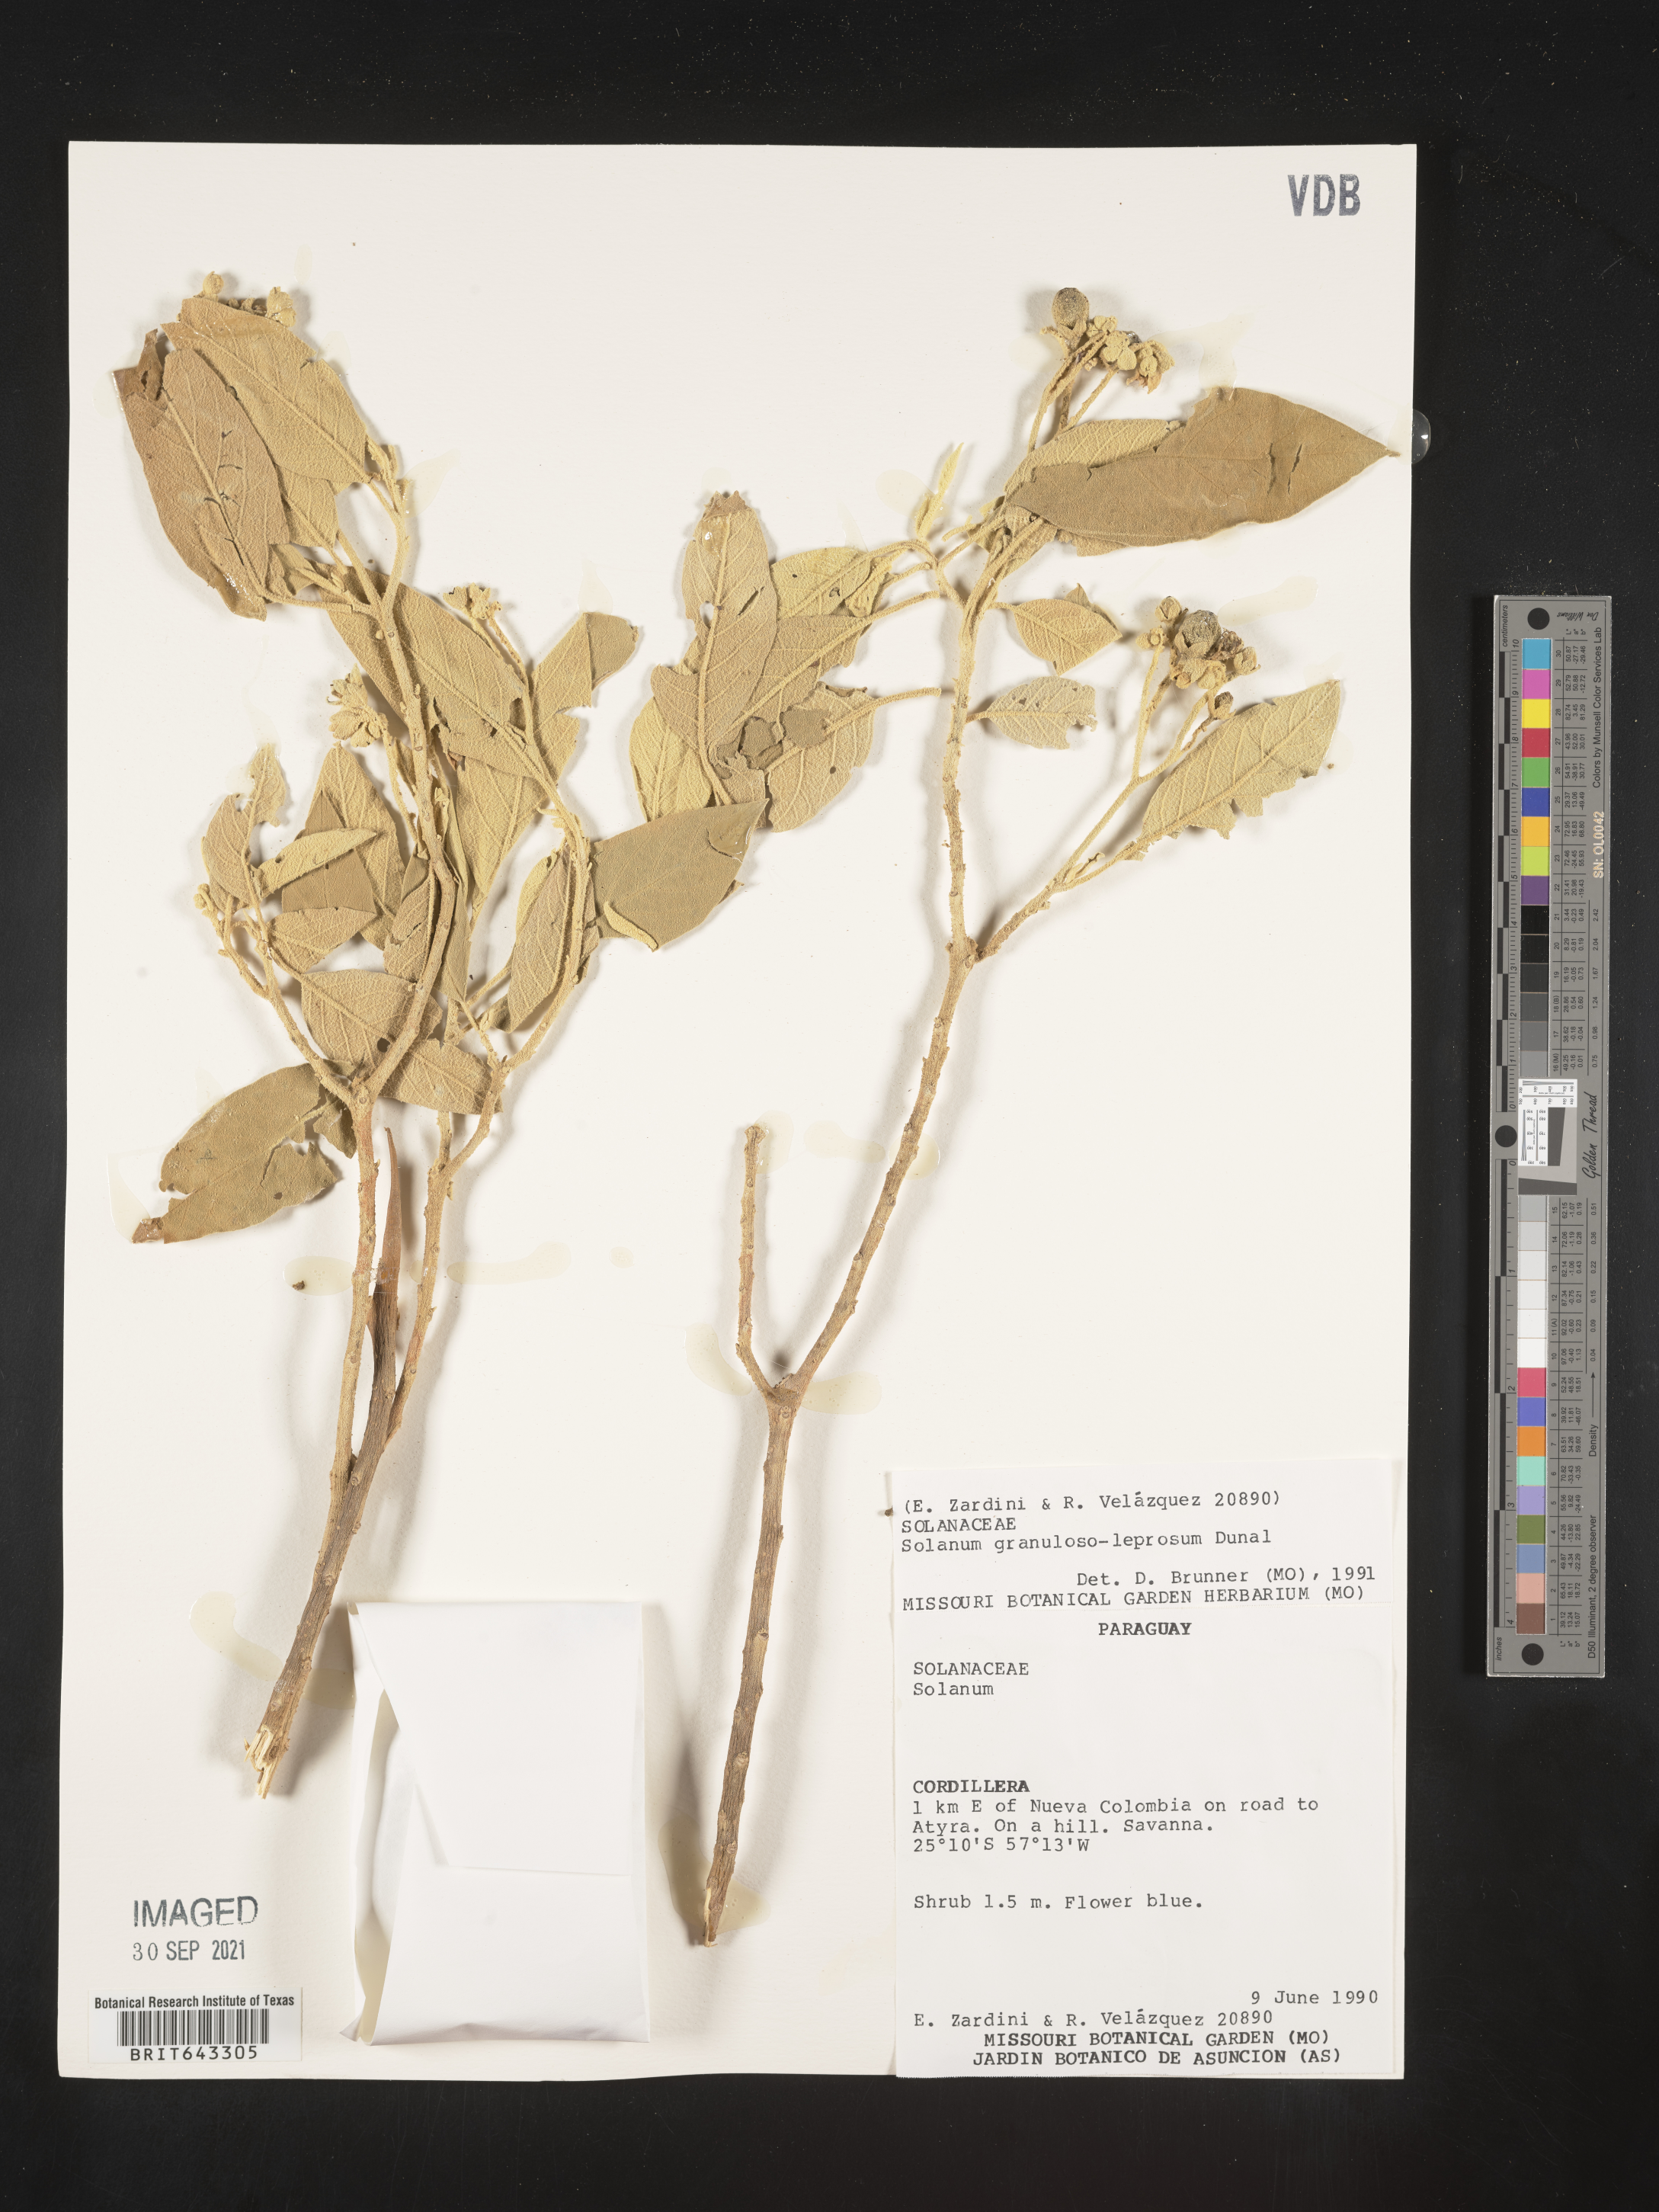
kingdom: Plantae
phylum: Tracheophyta
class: Magnoliopsida
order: Solanales
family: Solanaceae
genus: Solanum
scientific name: Solanum
